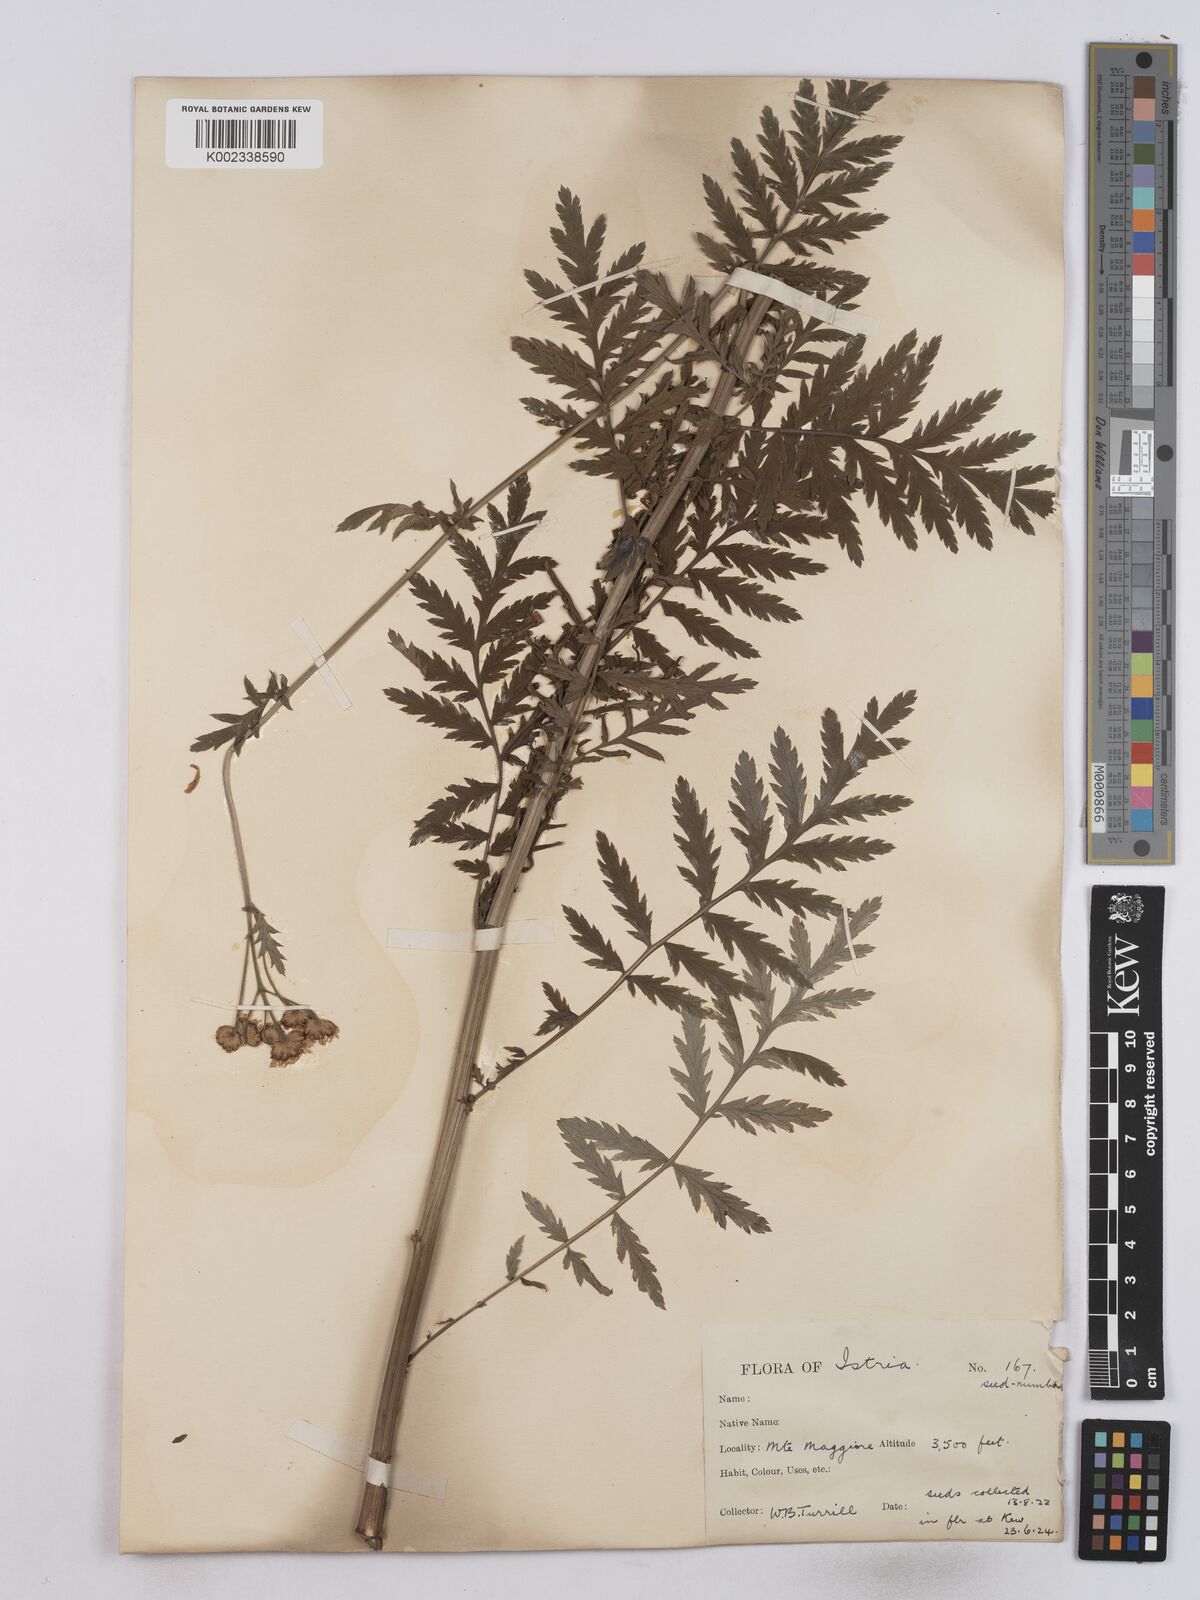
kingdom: Plantae
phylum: Tracheophyta
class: Magnoliopsida
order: Asterales
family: Asteraceae
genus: Tanacetum
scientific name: Tanacetum corymbosum
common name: Scentless feverfew
